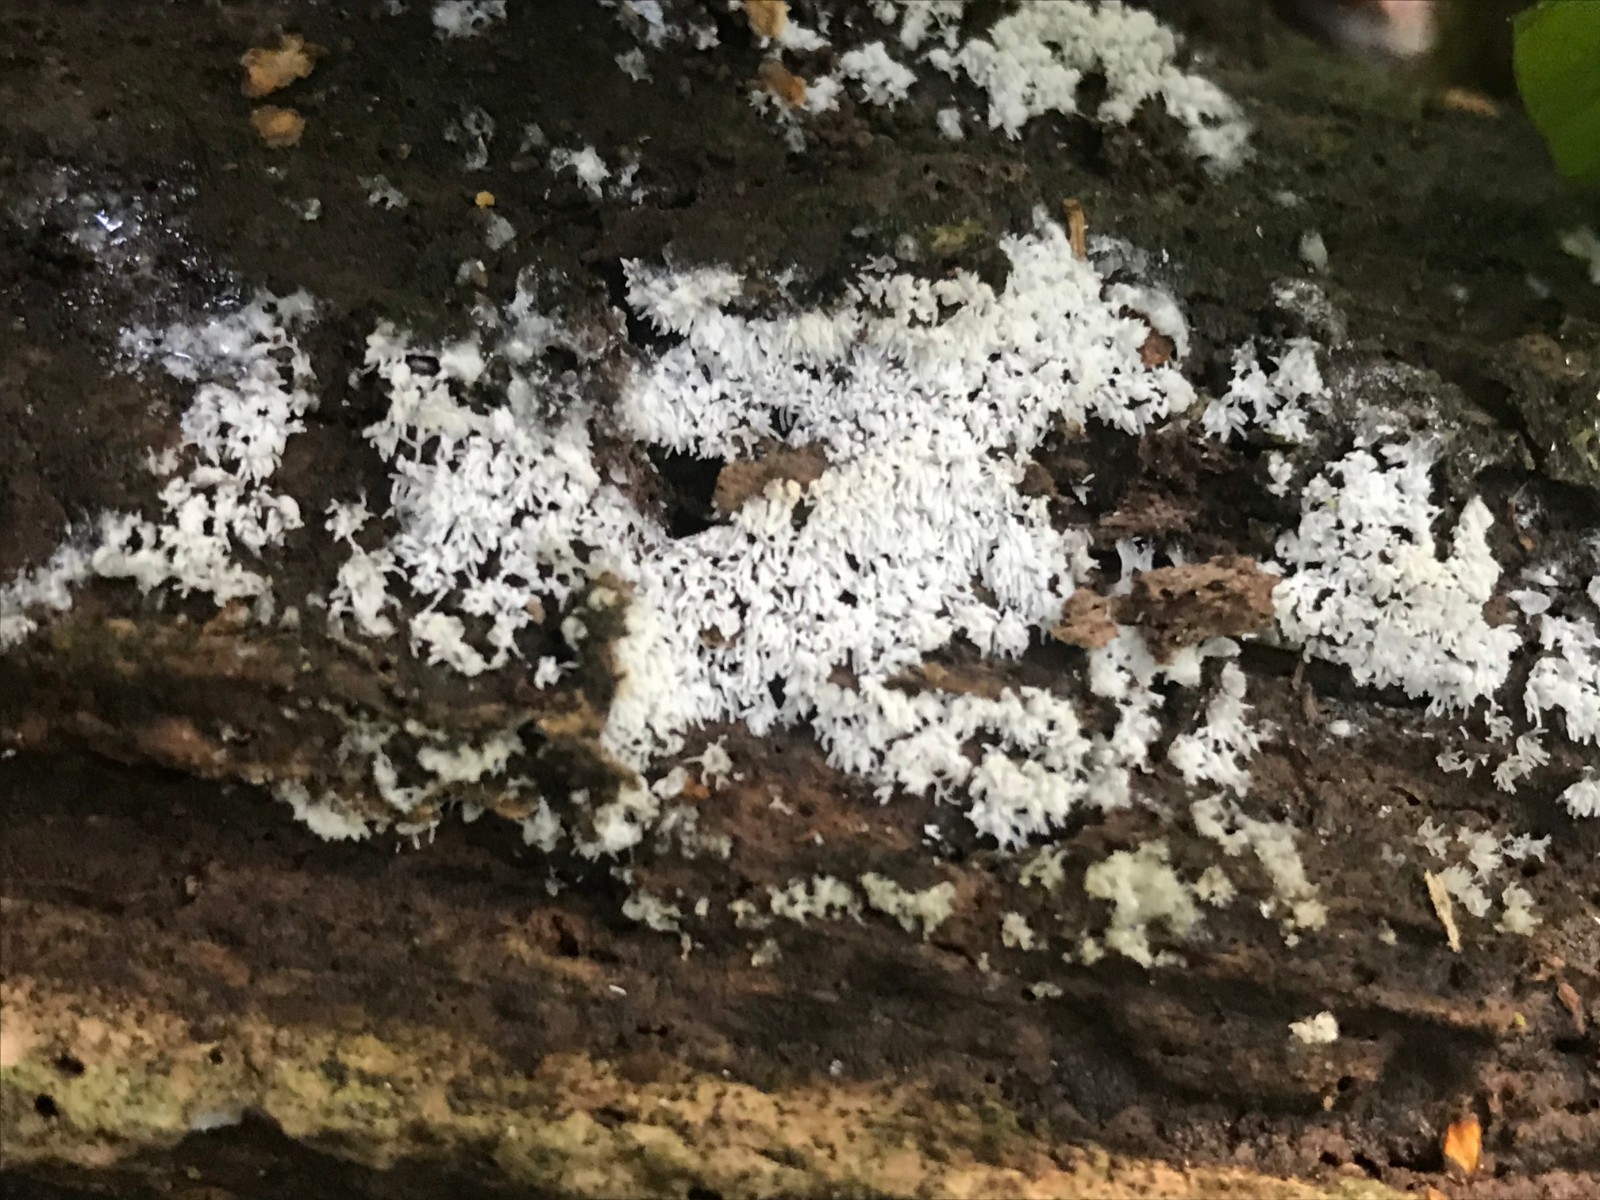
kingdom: Protozoa
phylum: Mycetozoa
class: Protosteliomycetes
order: Ceratiomyxales
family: Ceratiomyxaceae
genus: Ceratiomyxa
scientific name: Ceratiomyxa fruticulosa
